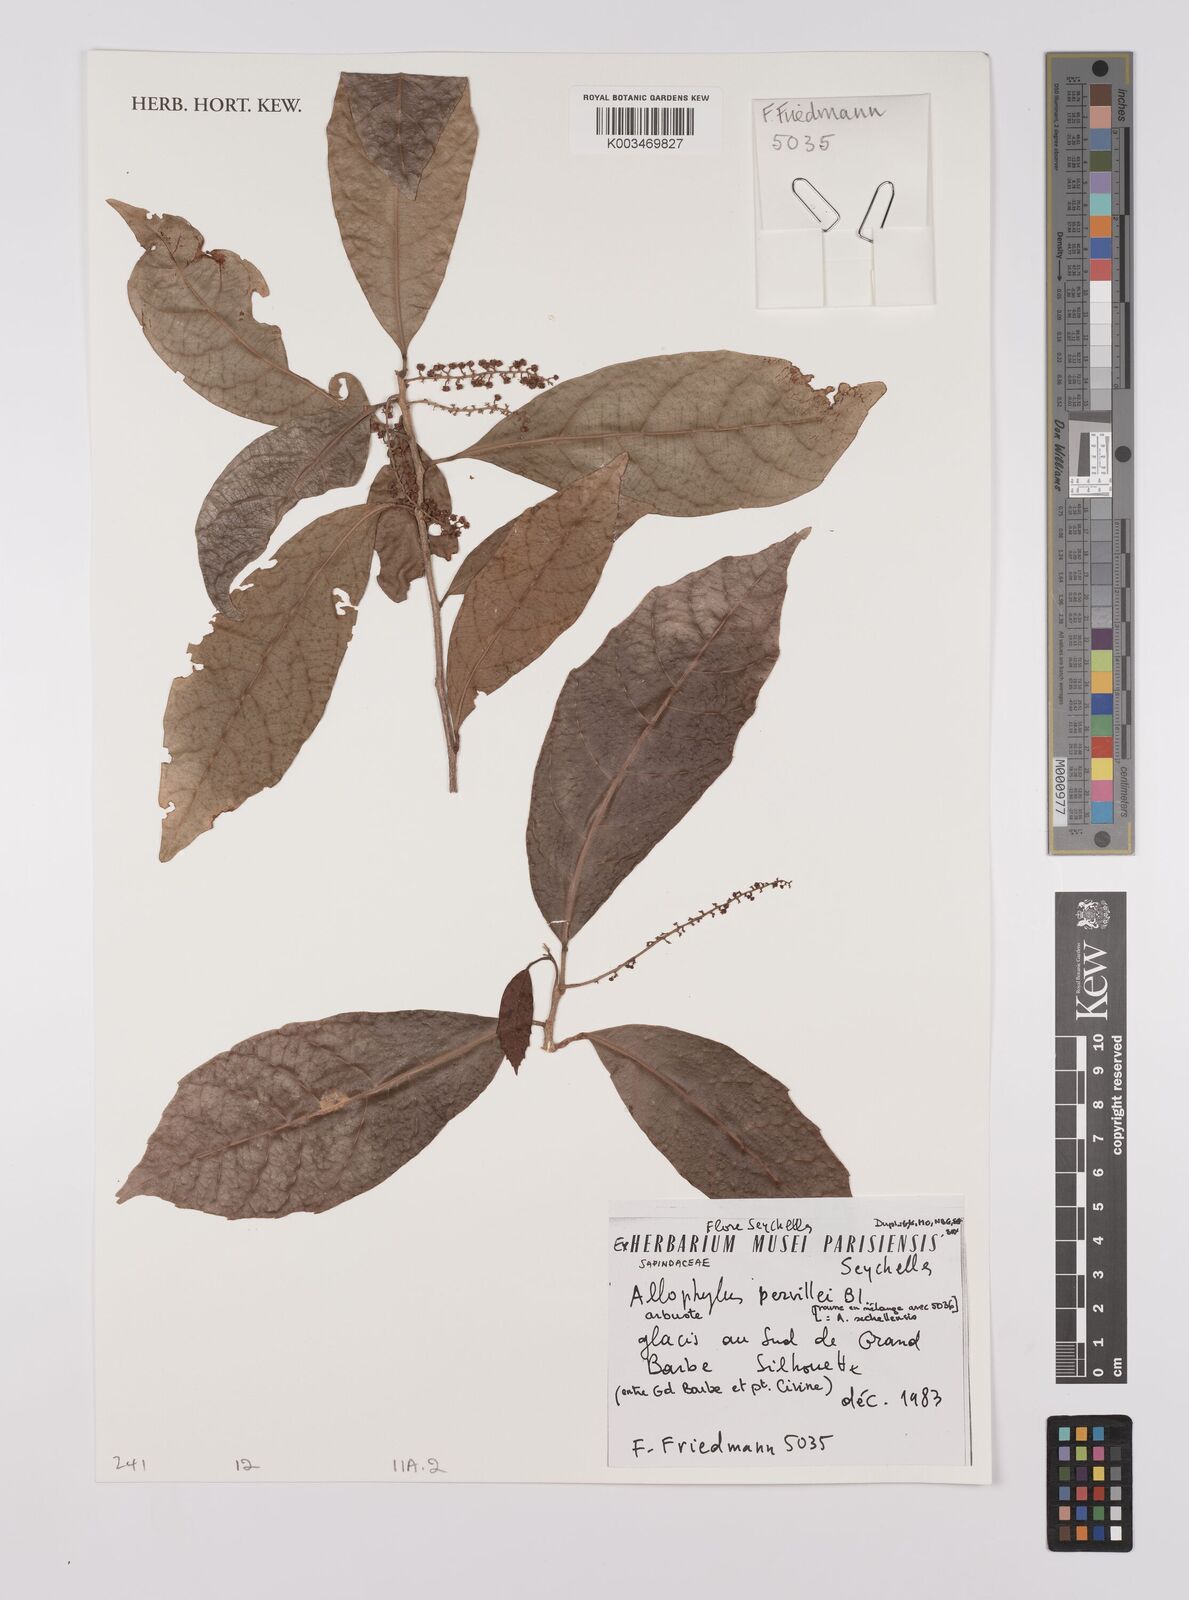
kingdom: Plantae
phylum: Tracheophyta
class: Magnoliopsida
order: Sapindales
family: Sapindaceae
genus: Allophylus
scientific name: Allophylus pervillei
